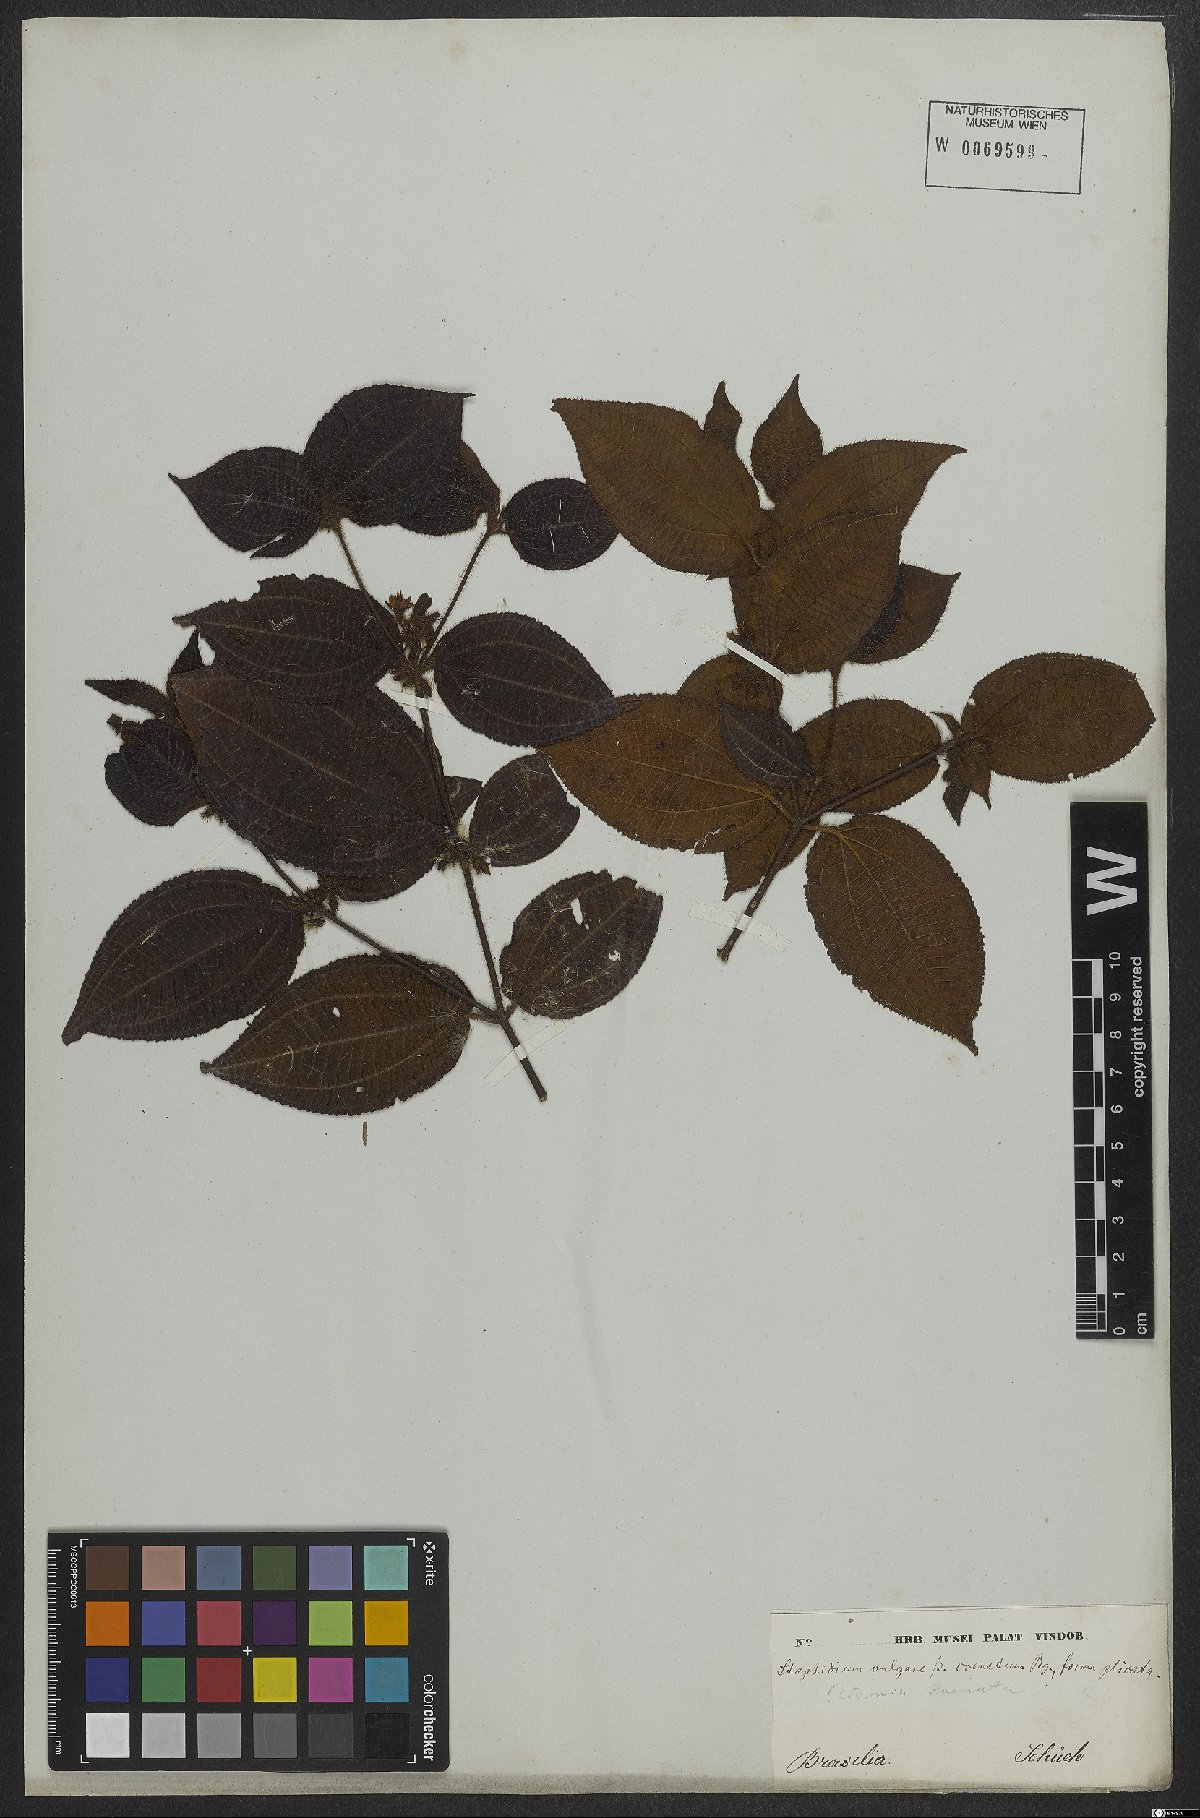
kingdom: Plantae
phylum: Tracheophyta
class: Magnoliopsida
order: Myrtales
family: Melastomataceae
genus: Miconia
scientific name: Miconia crenata
